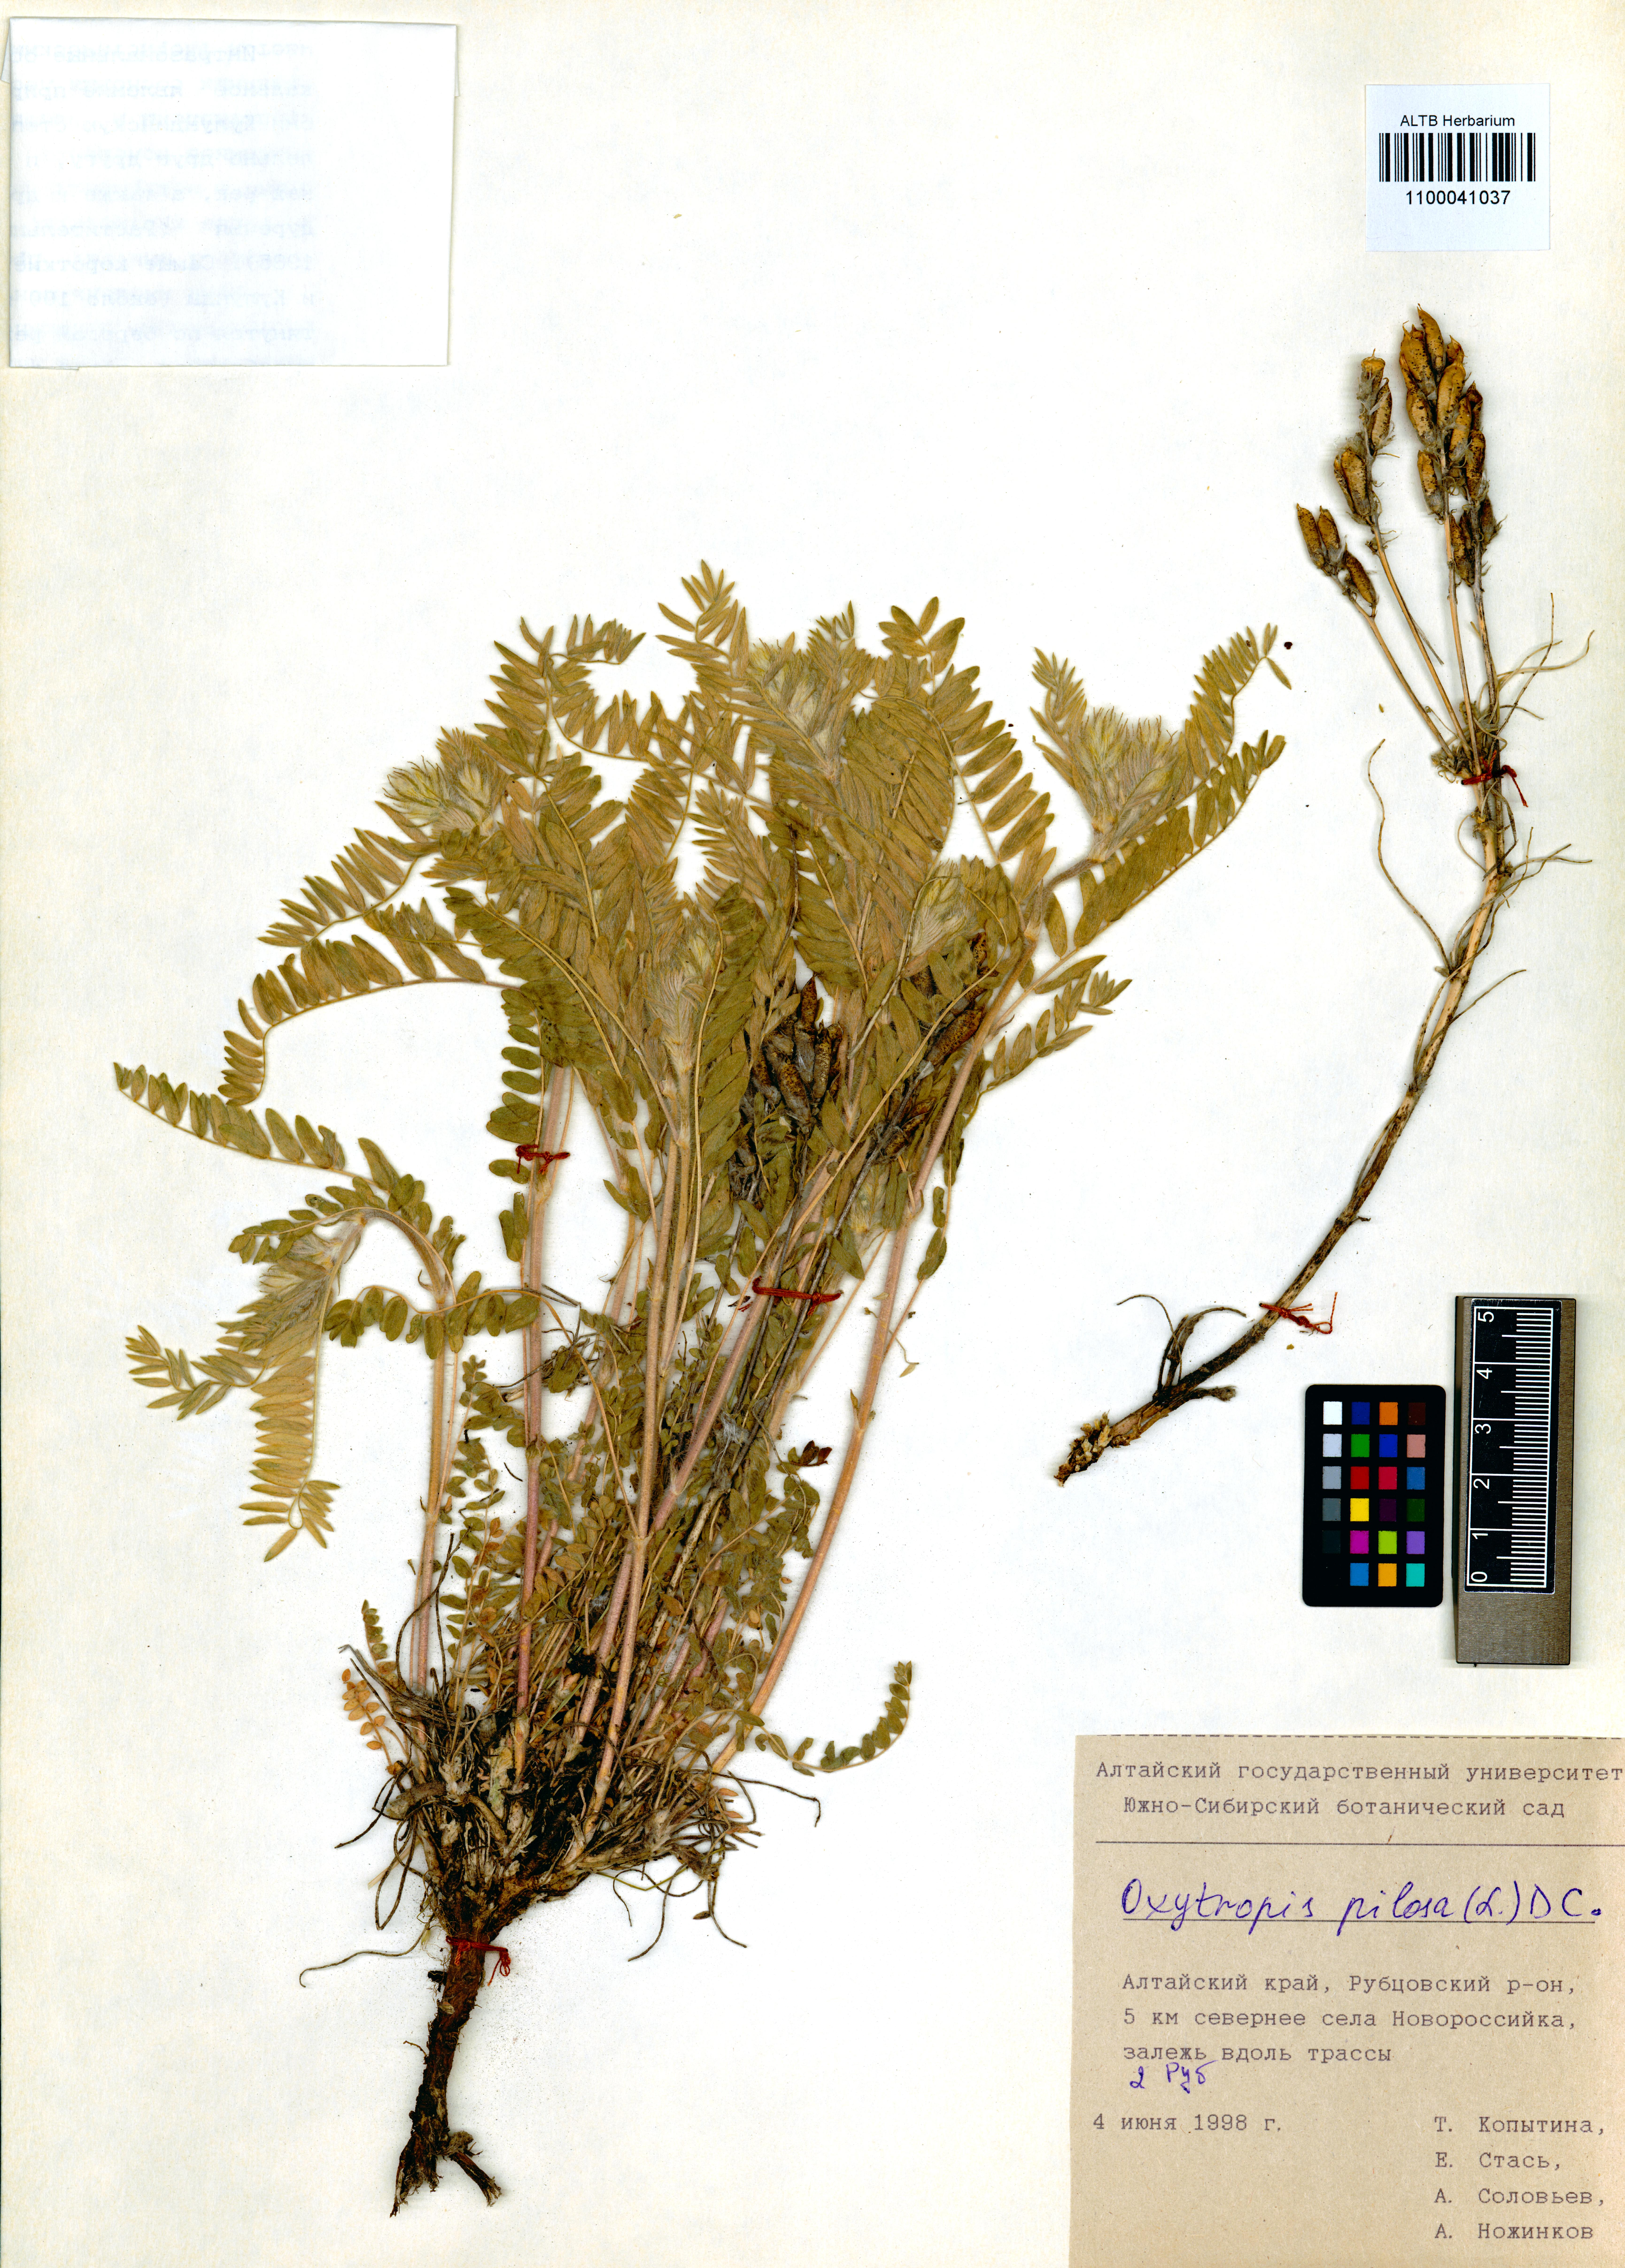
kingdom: Plantae
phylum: Tracheophyta
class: Magnoliopsida
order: Fabales
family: Fabaceae
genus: Oxytropis
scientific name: Oxytropis pilosa
